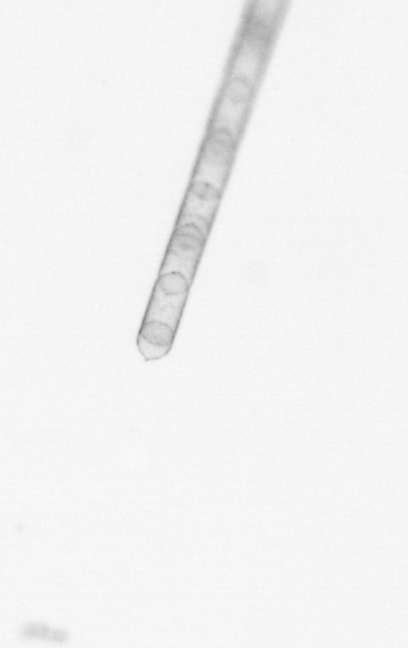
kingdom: Chromista
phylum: Ochrophyta
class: Bacillariophyceae
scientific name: Bacillariophyceae
